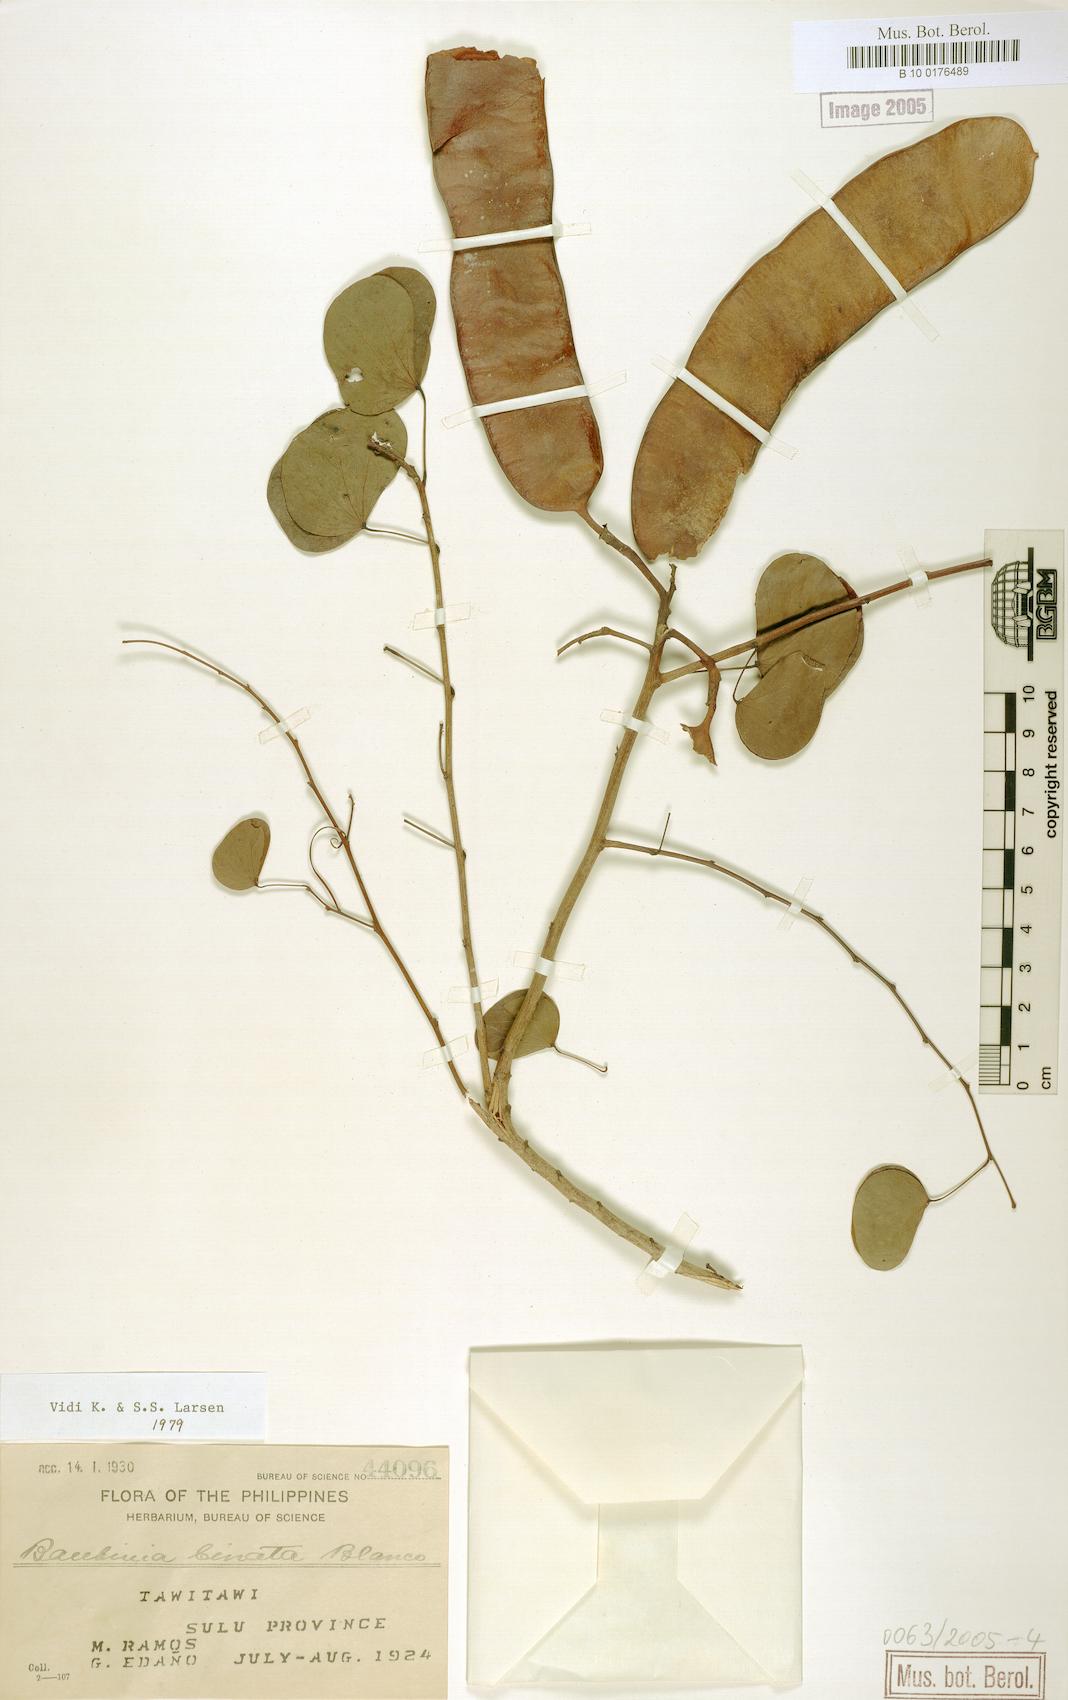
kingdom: Plantae
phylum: Tracheophyta
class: Magnoliopsida
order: Fabales
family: Fabaceae
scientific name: Fabaceae
